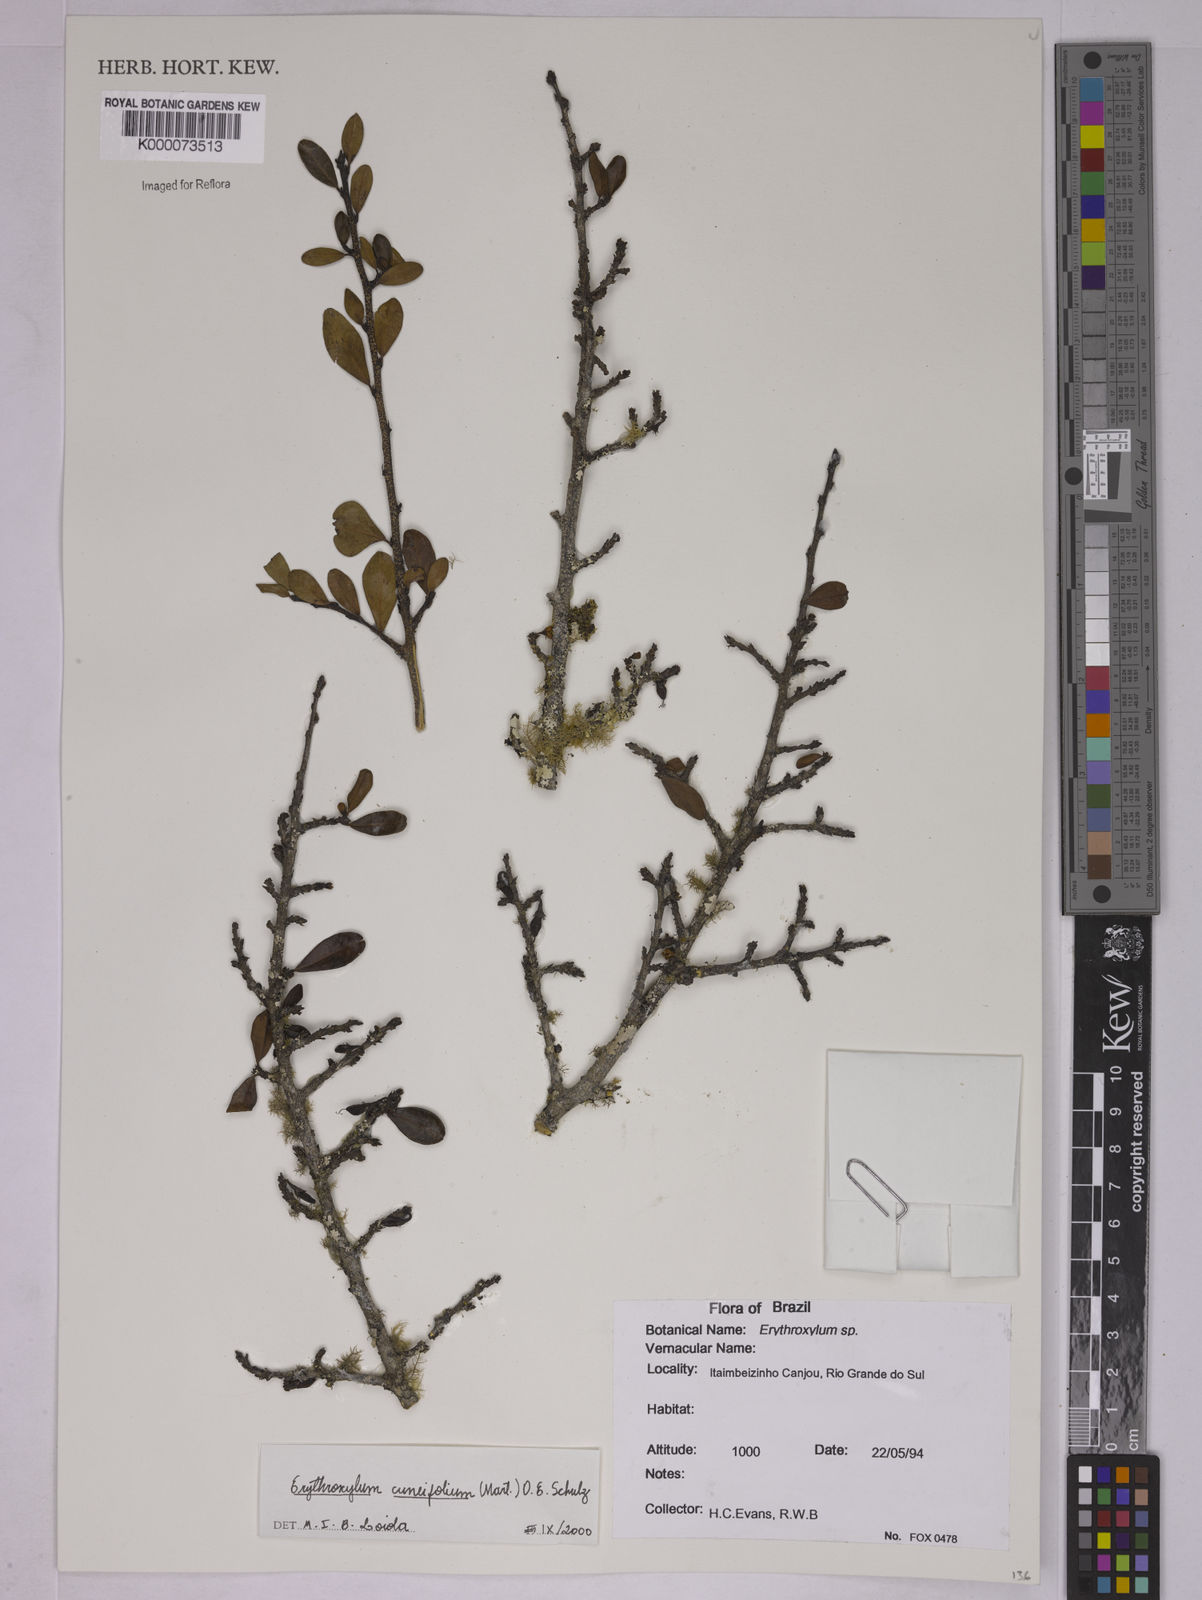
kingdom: Plantae
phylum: Tracheophyta
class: Magnoliopsida
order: Malpighiales
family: Erythroxylaceae
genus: Erythroxylum
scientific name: Erythroxylum cuneifolium
